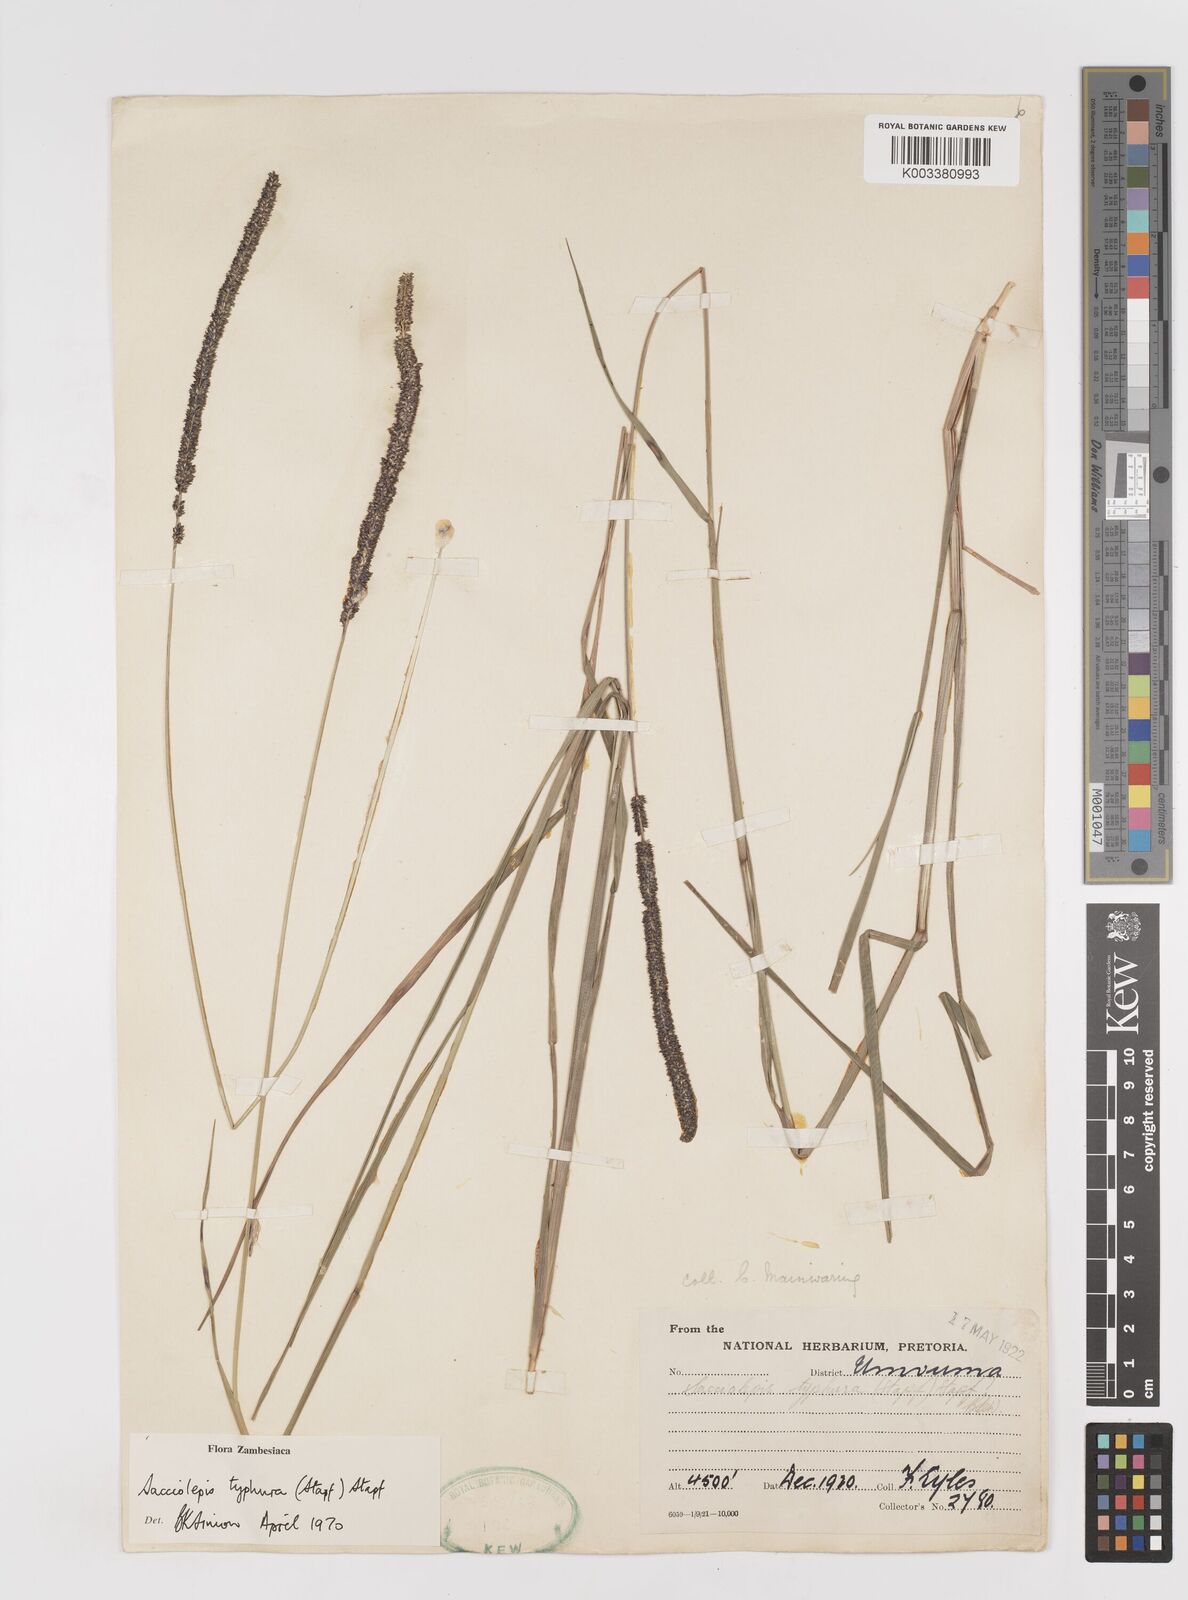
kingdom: Plantae
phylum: Tracheophyta
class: Liliopsida
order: Poales
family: Poaceae
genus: Sacciolepis
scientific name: Sacciolepis typhura
